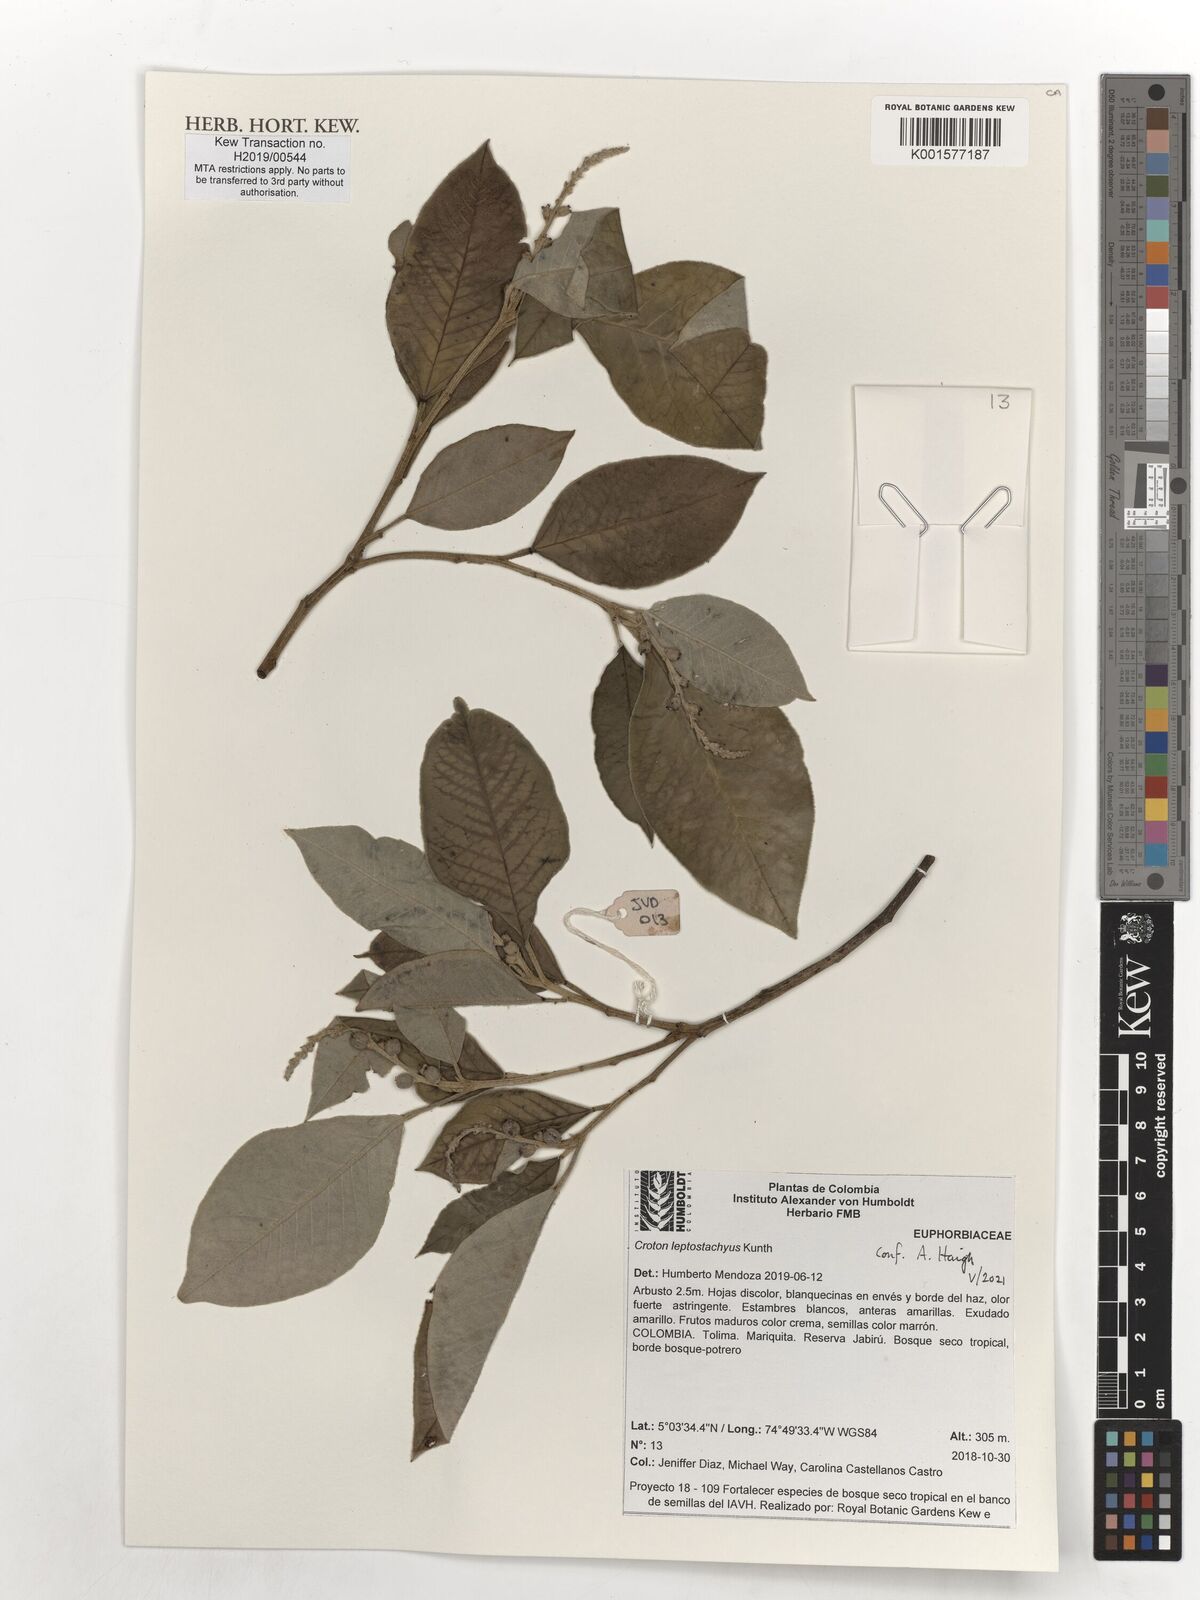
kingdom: Plantae
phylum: Tracheophyta
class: Magnoliopsida
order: Malpighiales
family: Euphorbiaceae
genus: Croton
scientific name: Croton leptostachyus
